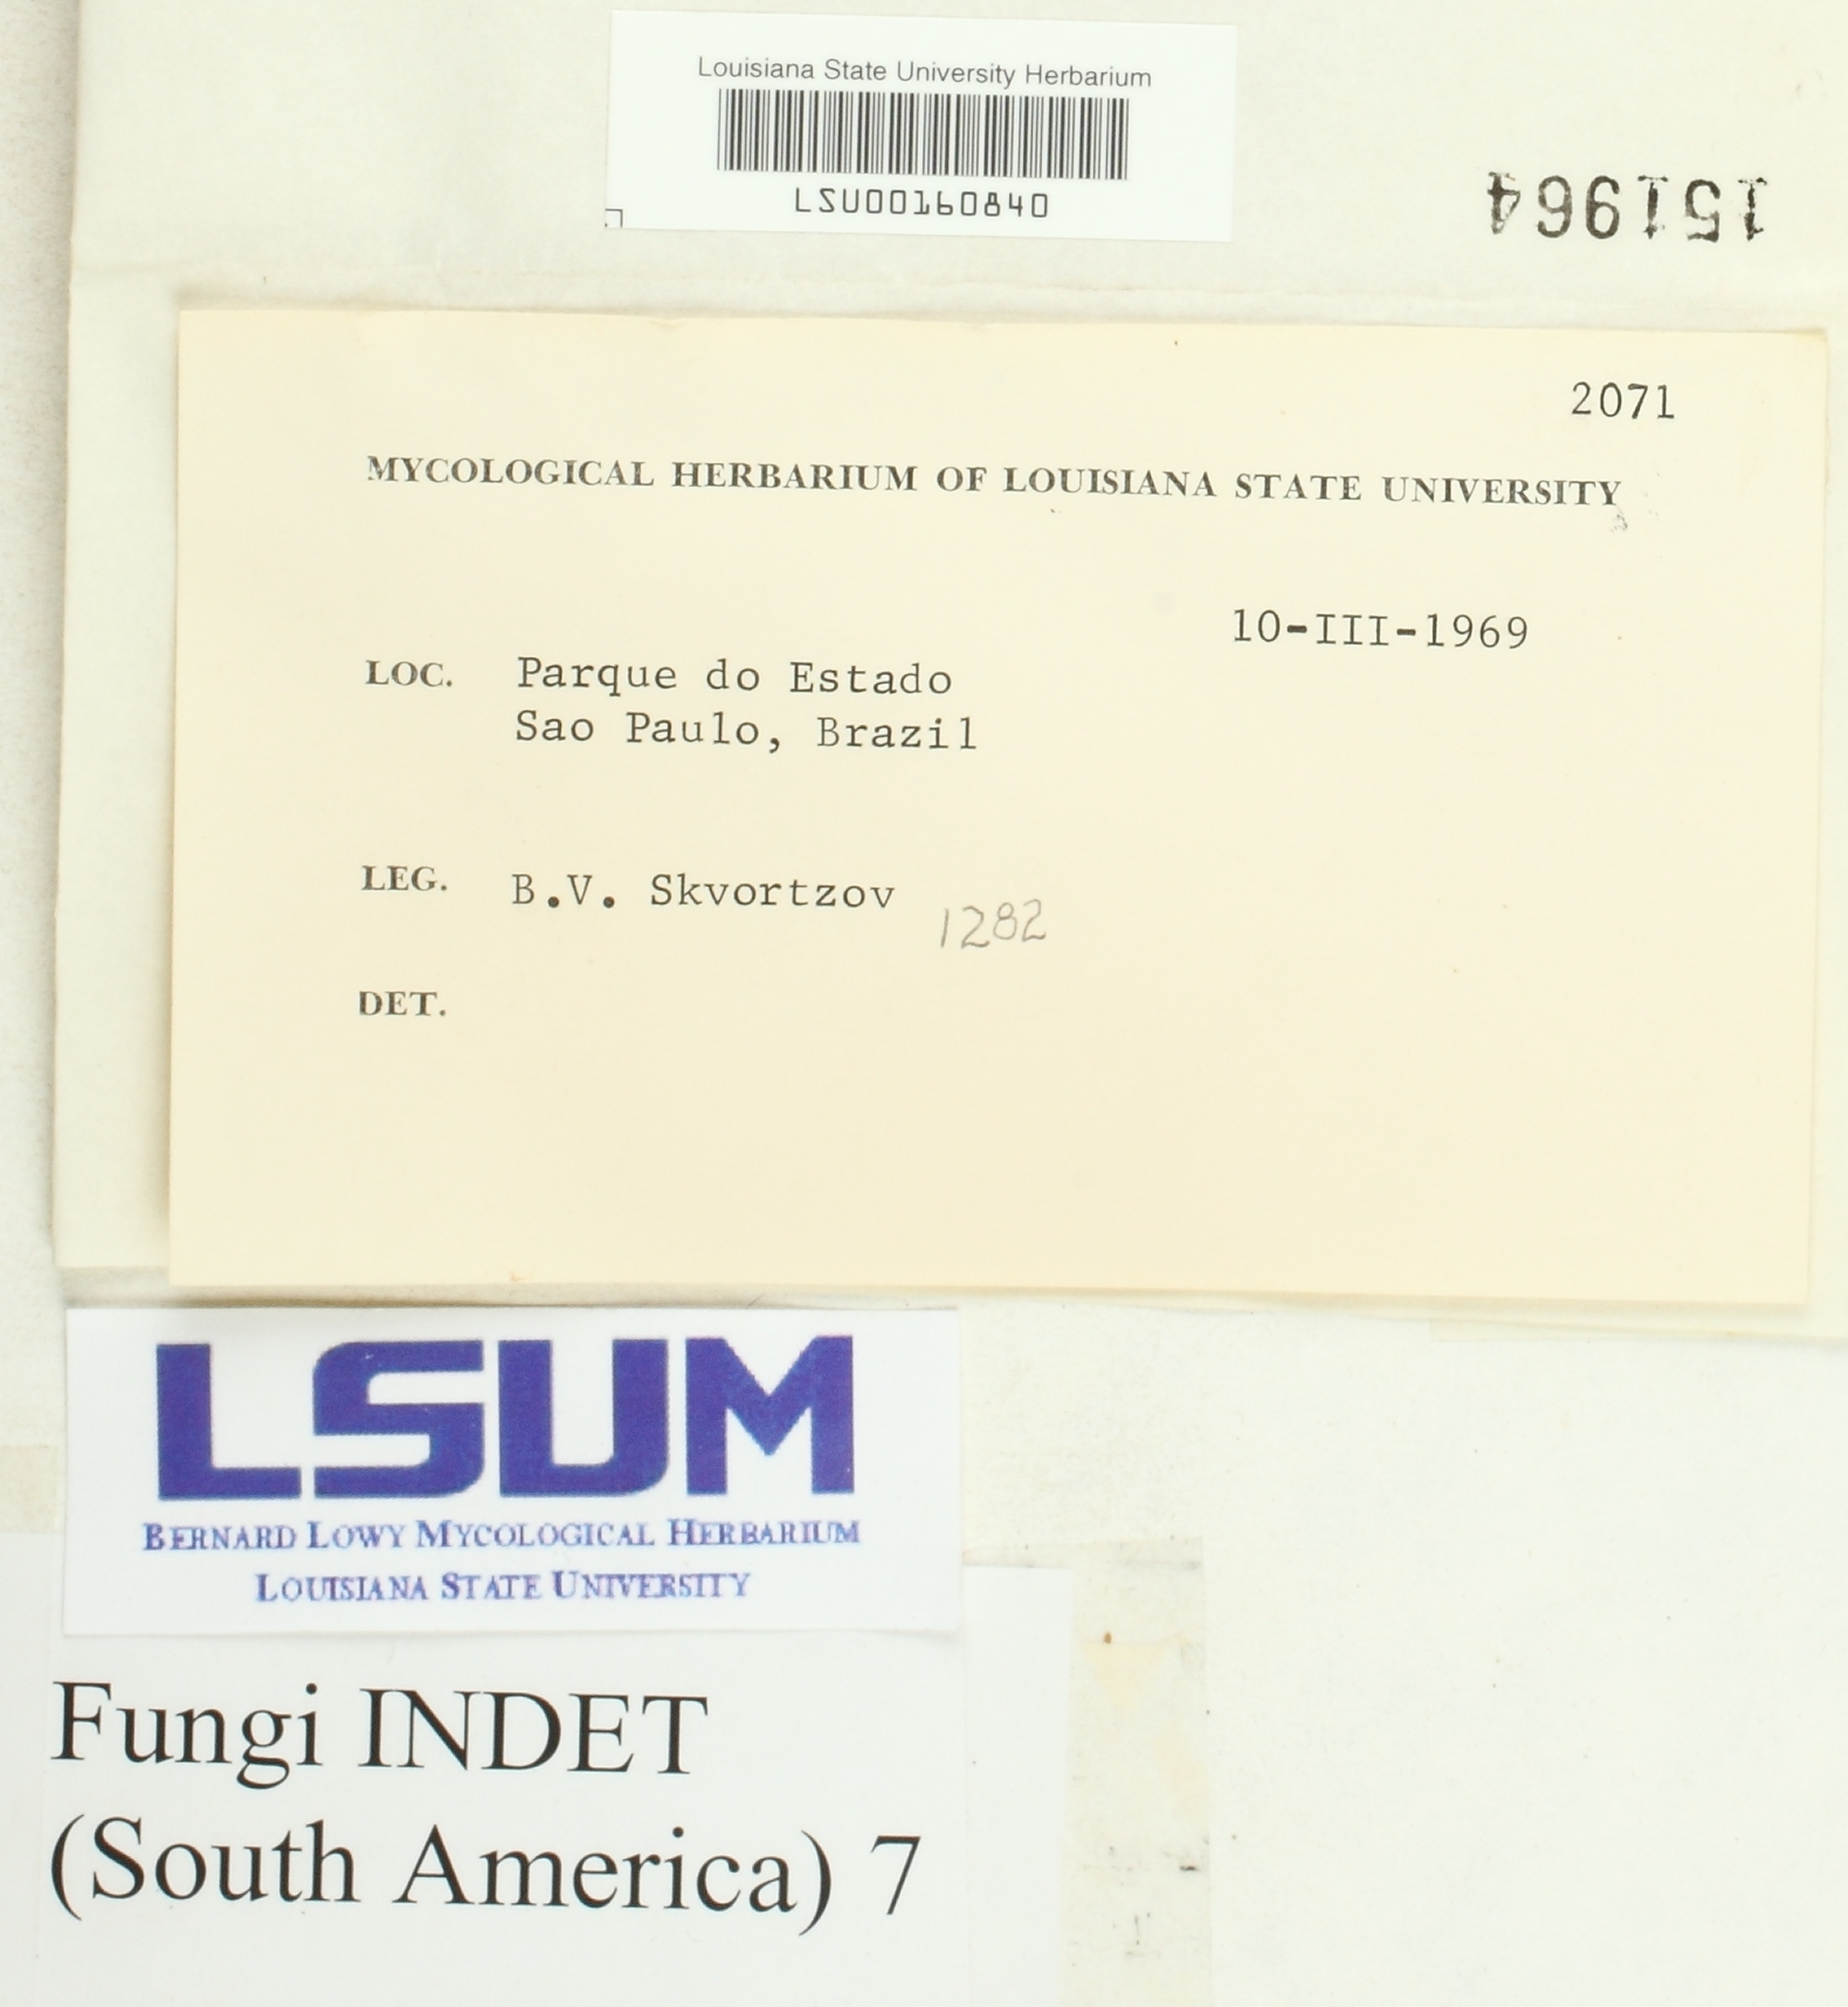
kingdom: Fungi
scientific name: Fungi
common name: Fungi
